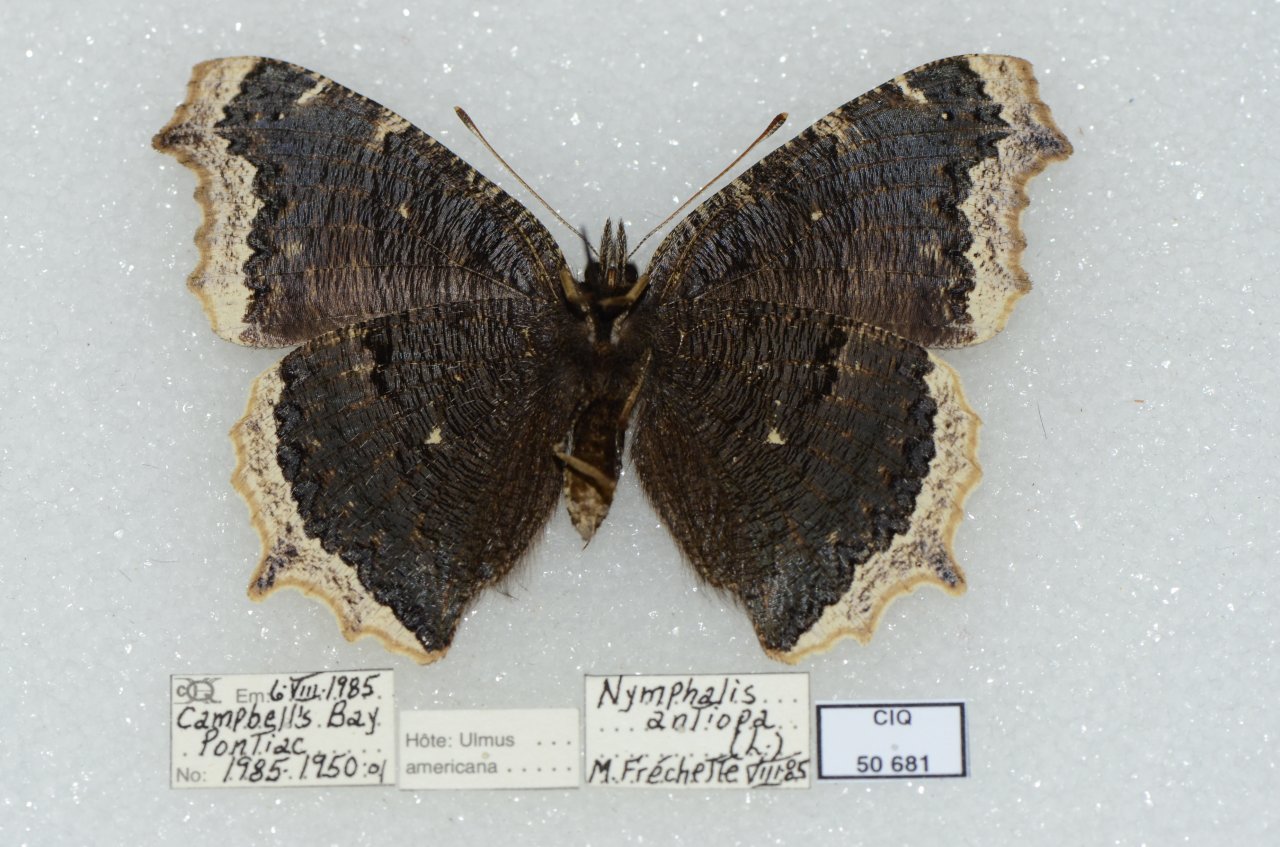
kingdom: Animalia
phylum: Arthropoda
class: Insecta
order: Lepidoptera
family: Nymphalidae
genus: Nymphalis
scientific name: Nymphalis antiopa
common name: Mourning Cloak
